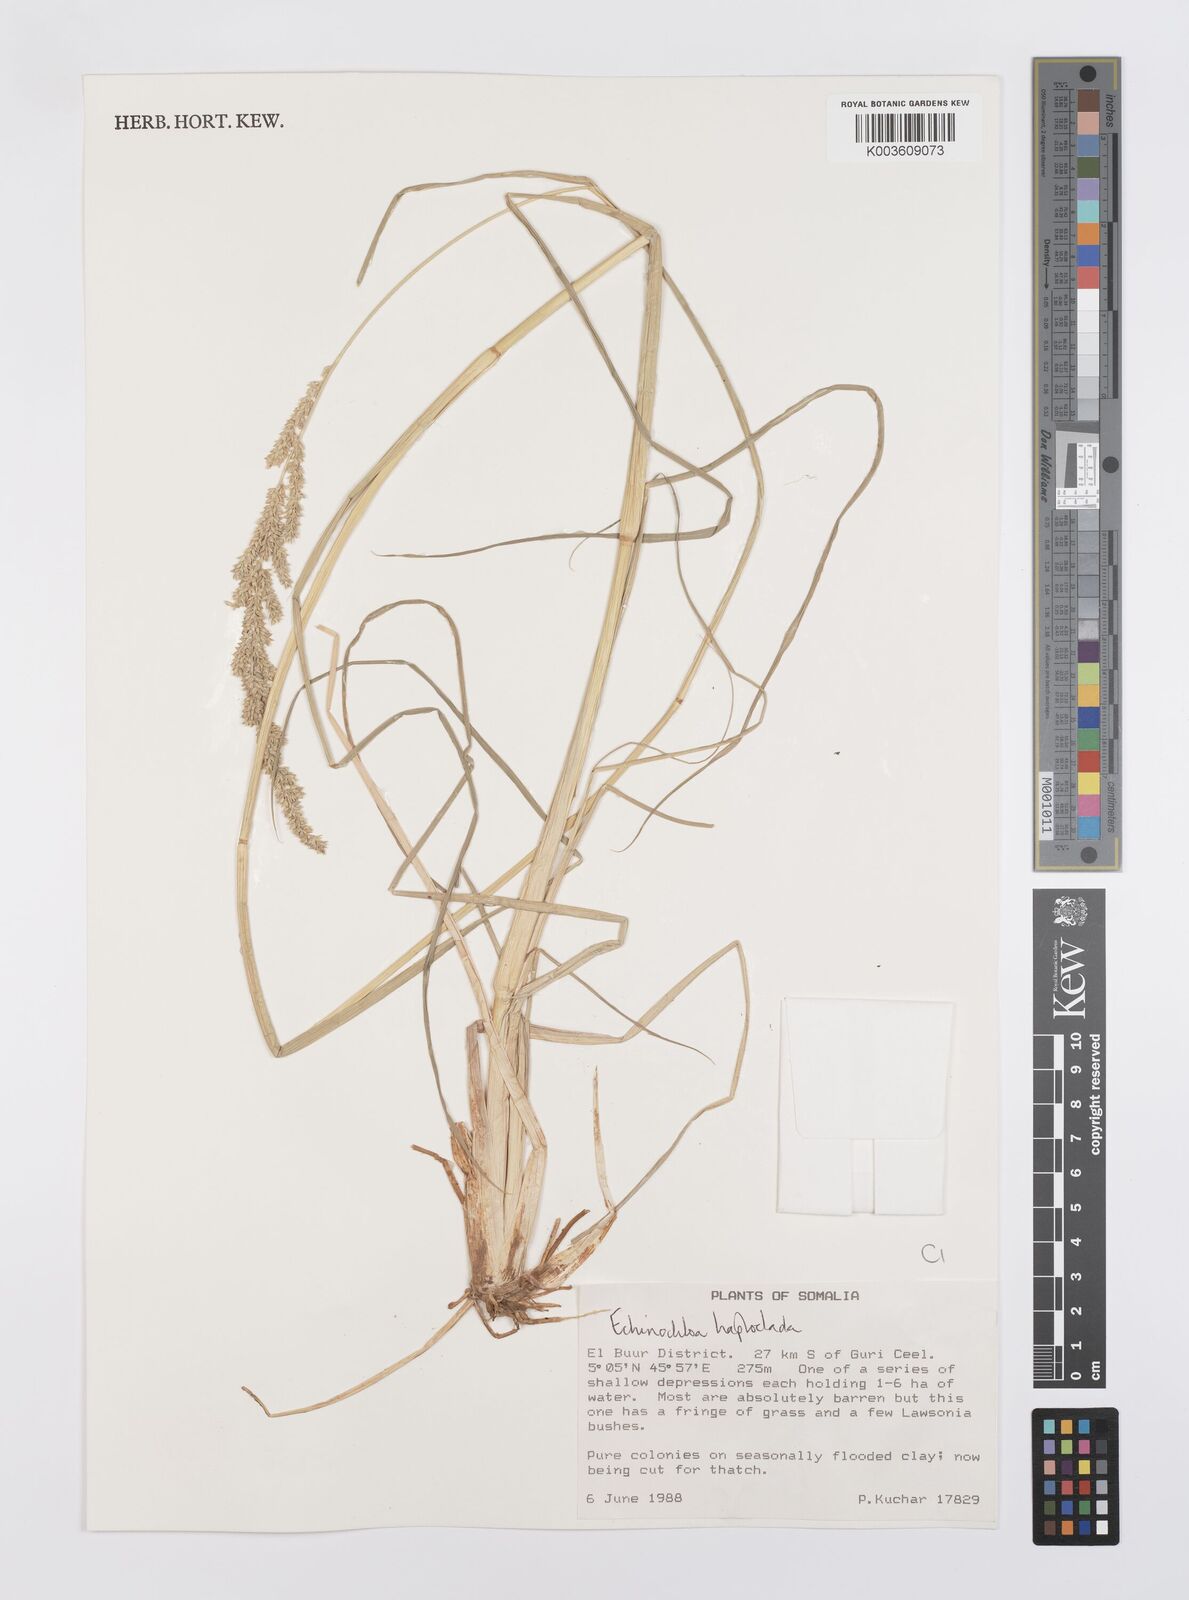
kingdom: Plantae
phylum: Tracheophyta
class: Liliopsida
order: Poales
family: Poaceae
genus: Echinochloa
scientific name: Echinochloa haploclada
